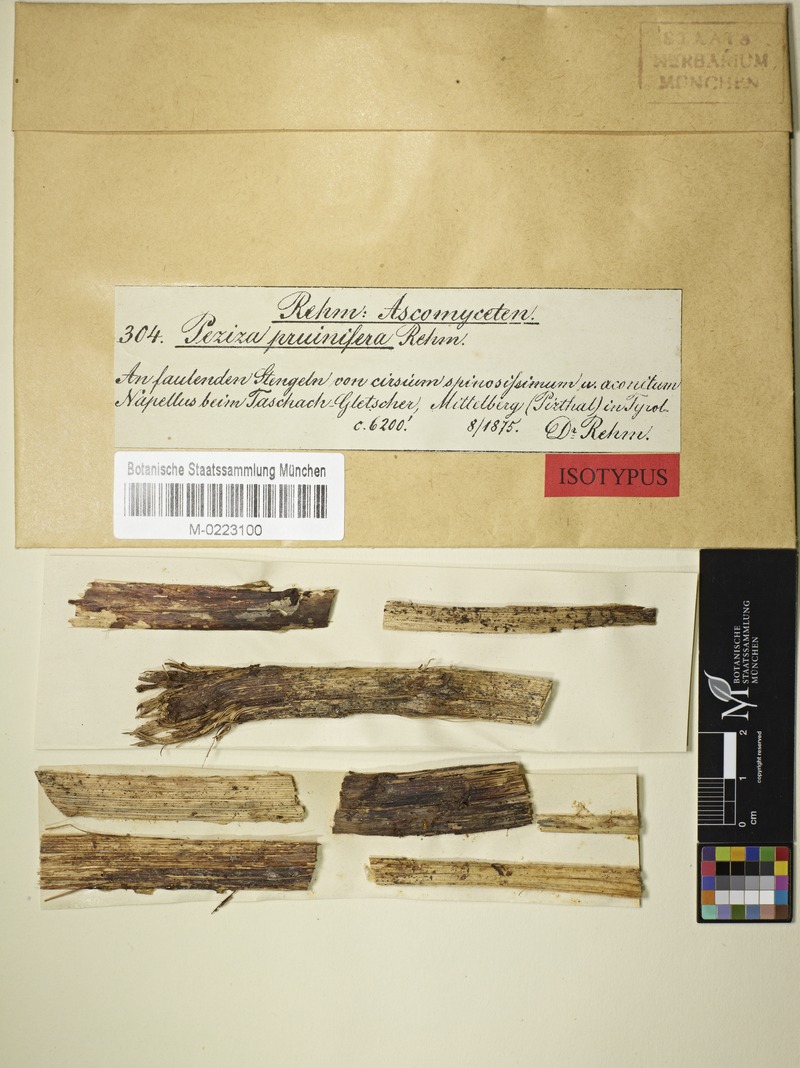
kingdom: Fungi
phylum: Ascomycota
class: Leotiomycetes
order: Helotiales
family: Helotiaceae
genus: Belonioscyphella
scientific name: Belonioscyphella pruinifera
